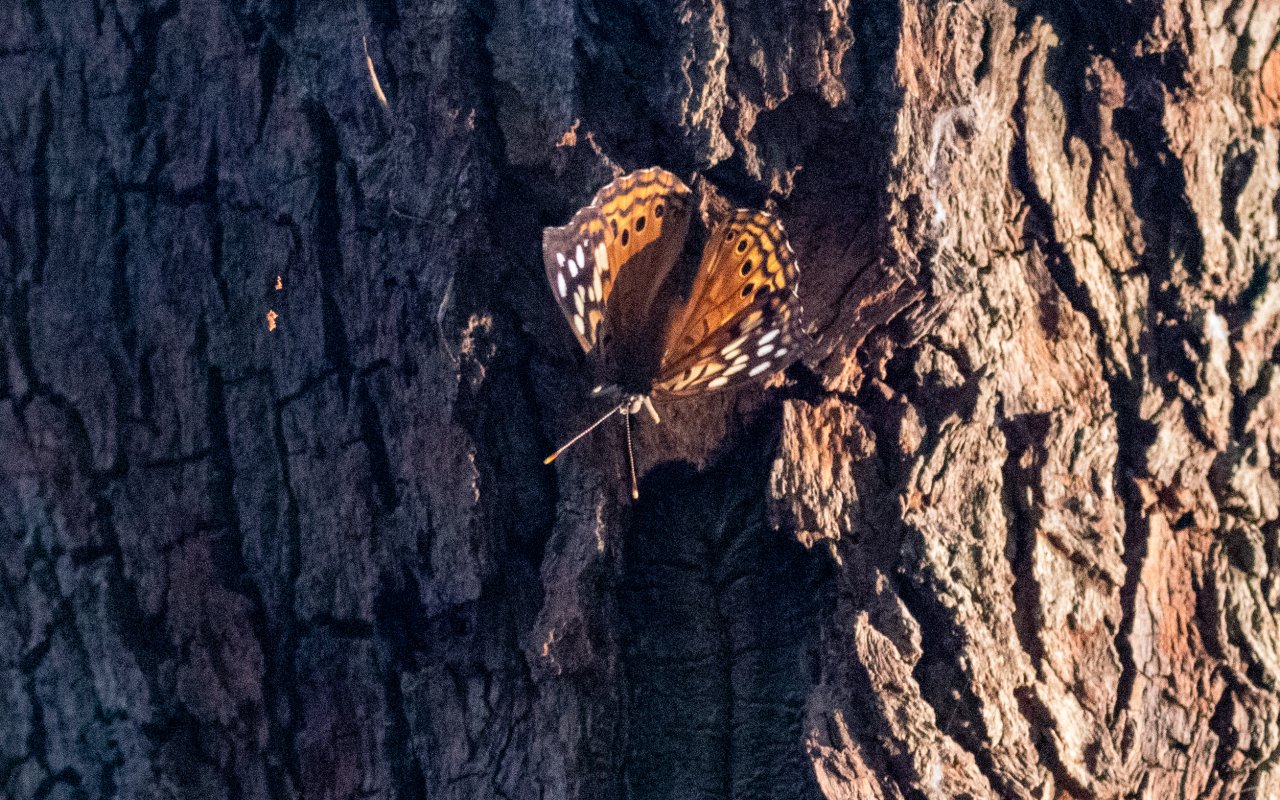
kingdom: Animalia
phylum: Arthropoda
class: Insecta
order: Lepidoptera
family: Nymphalidae
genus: Asterocampa
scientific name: Asterocampa celtis
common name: Hackberry Emperor
